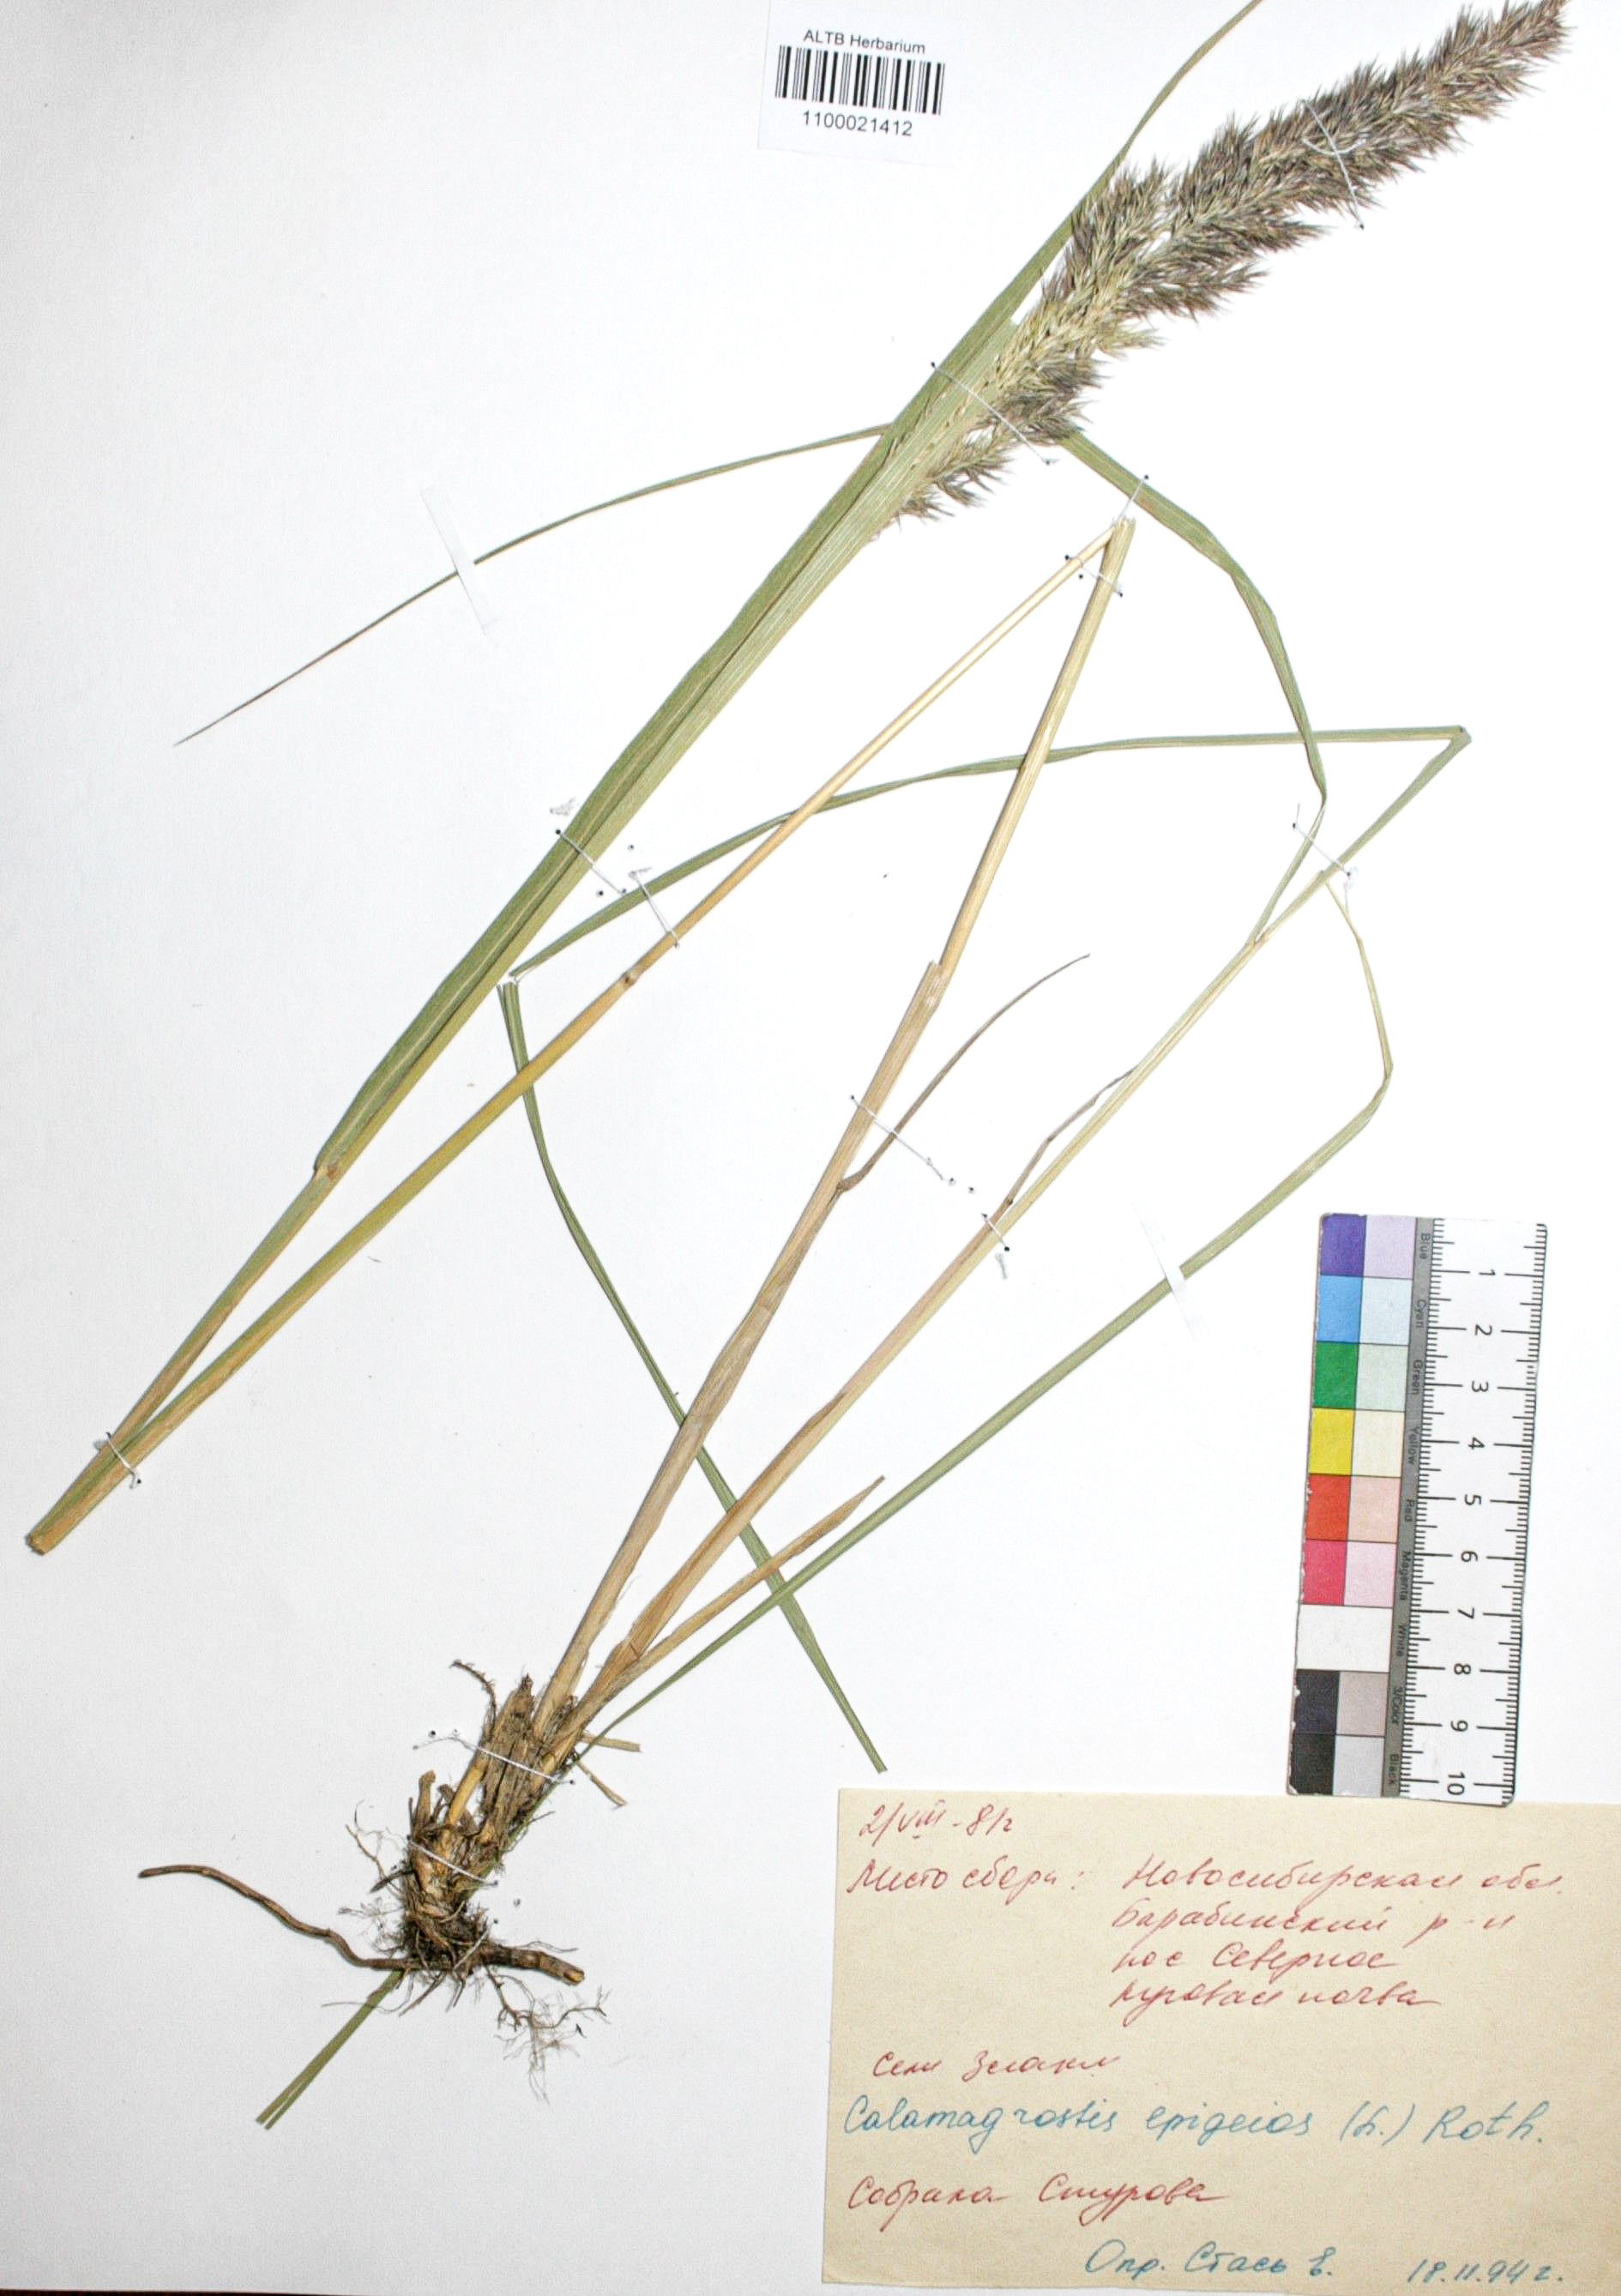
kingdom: Plantae
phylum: Tracheophyta
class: Liliopsida
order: Poales
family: Poaceae
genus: Calamagrostis
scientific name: Calamagrostis epigejos
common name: Wood small-reed
